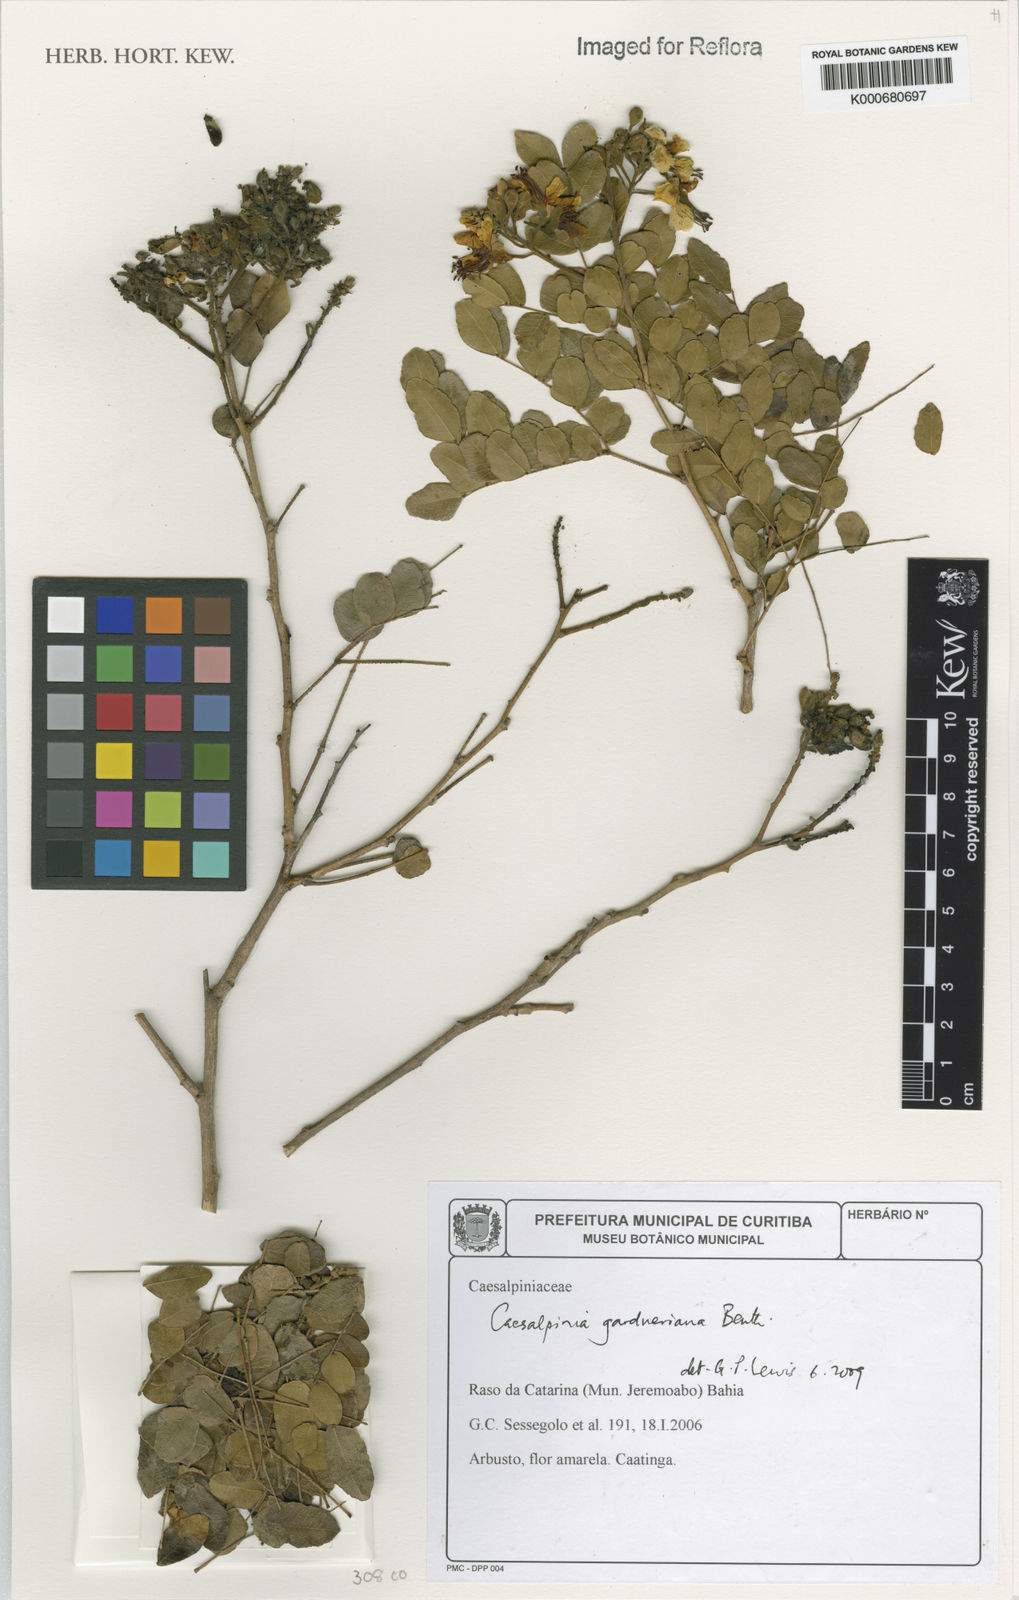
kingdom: Plantae
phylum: Tracheophyta
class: Magnoliopsida
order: Fabales
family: Fabaceae
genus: Cenostigma
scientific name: Cenostigma nordestinum
